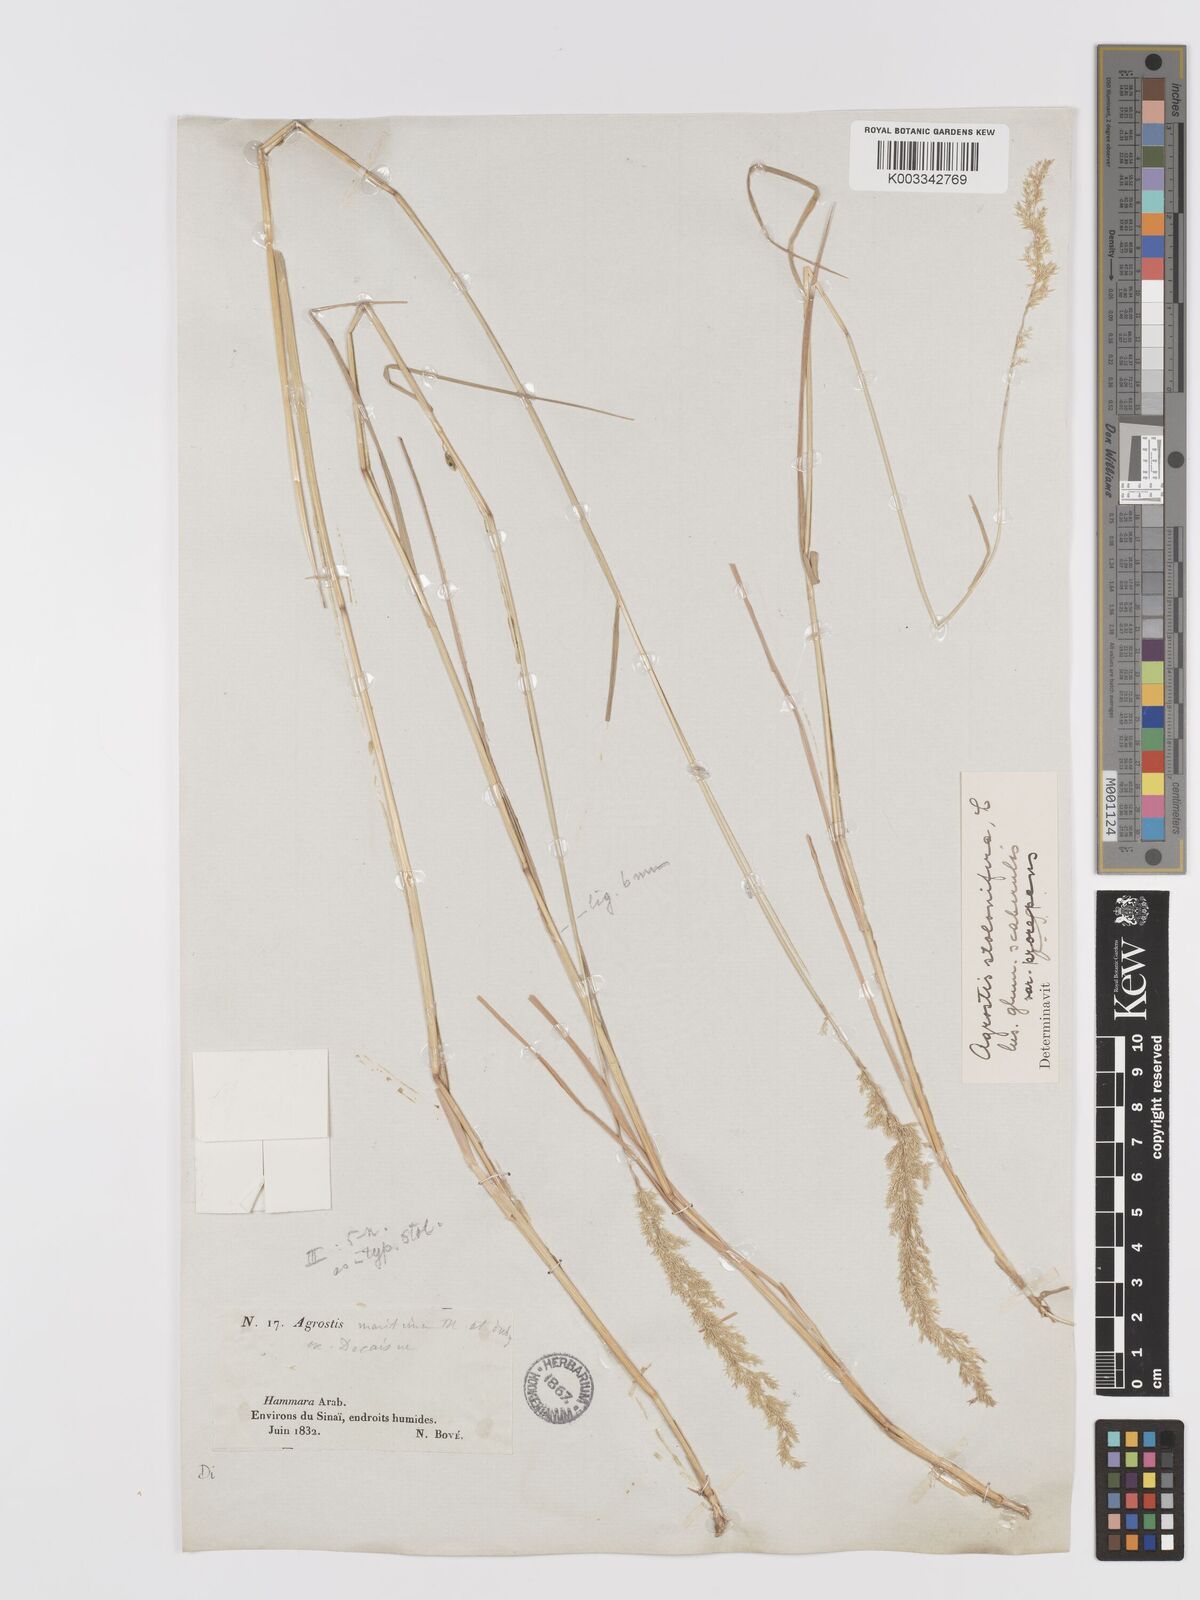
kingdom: Plantae
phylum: Tracheophyta
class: Liliopsida
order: Poales
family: Poaceae
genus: Agrostis
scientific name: Agrostis stolonifera
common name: Creeping bentgrass
